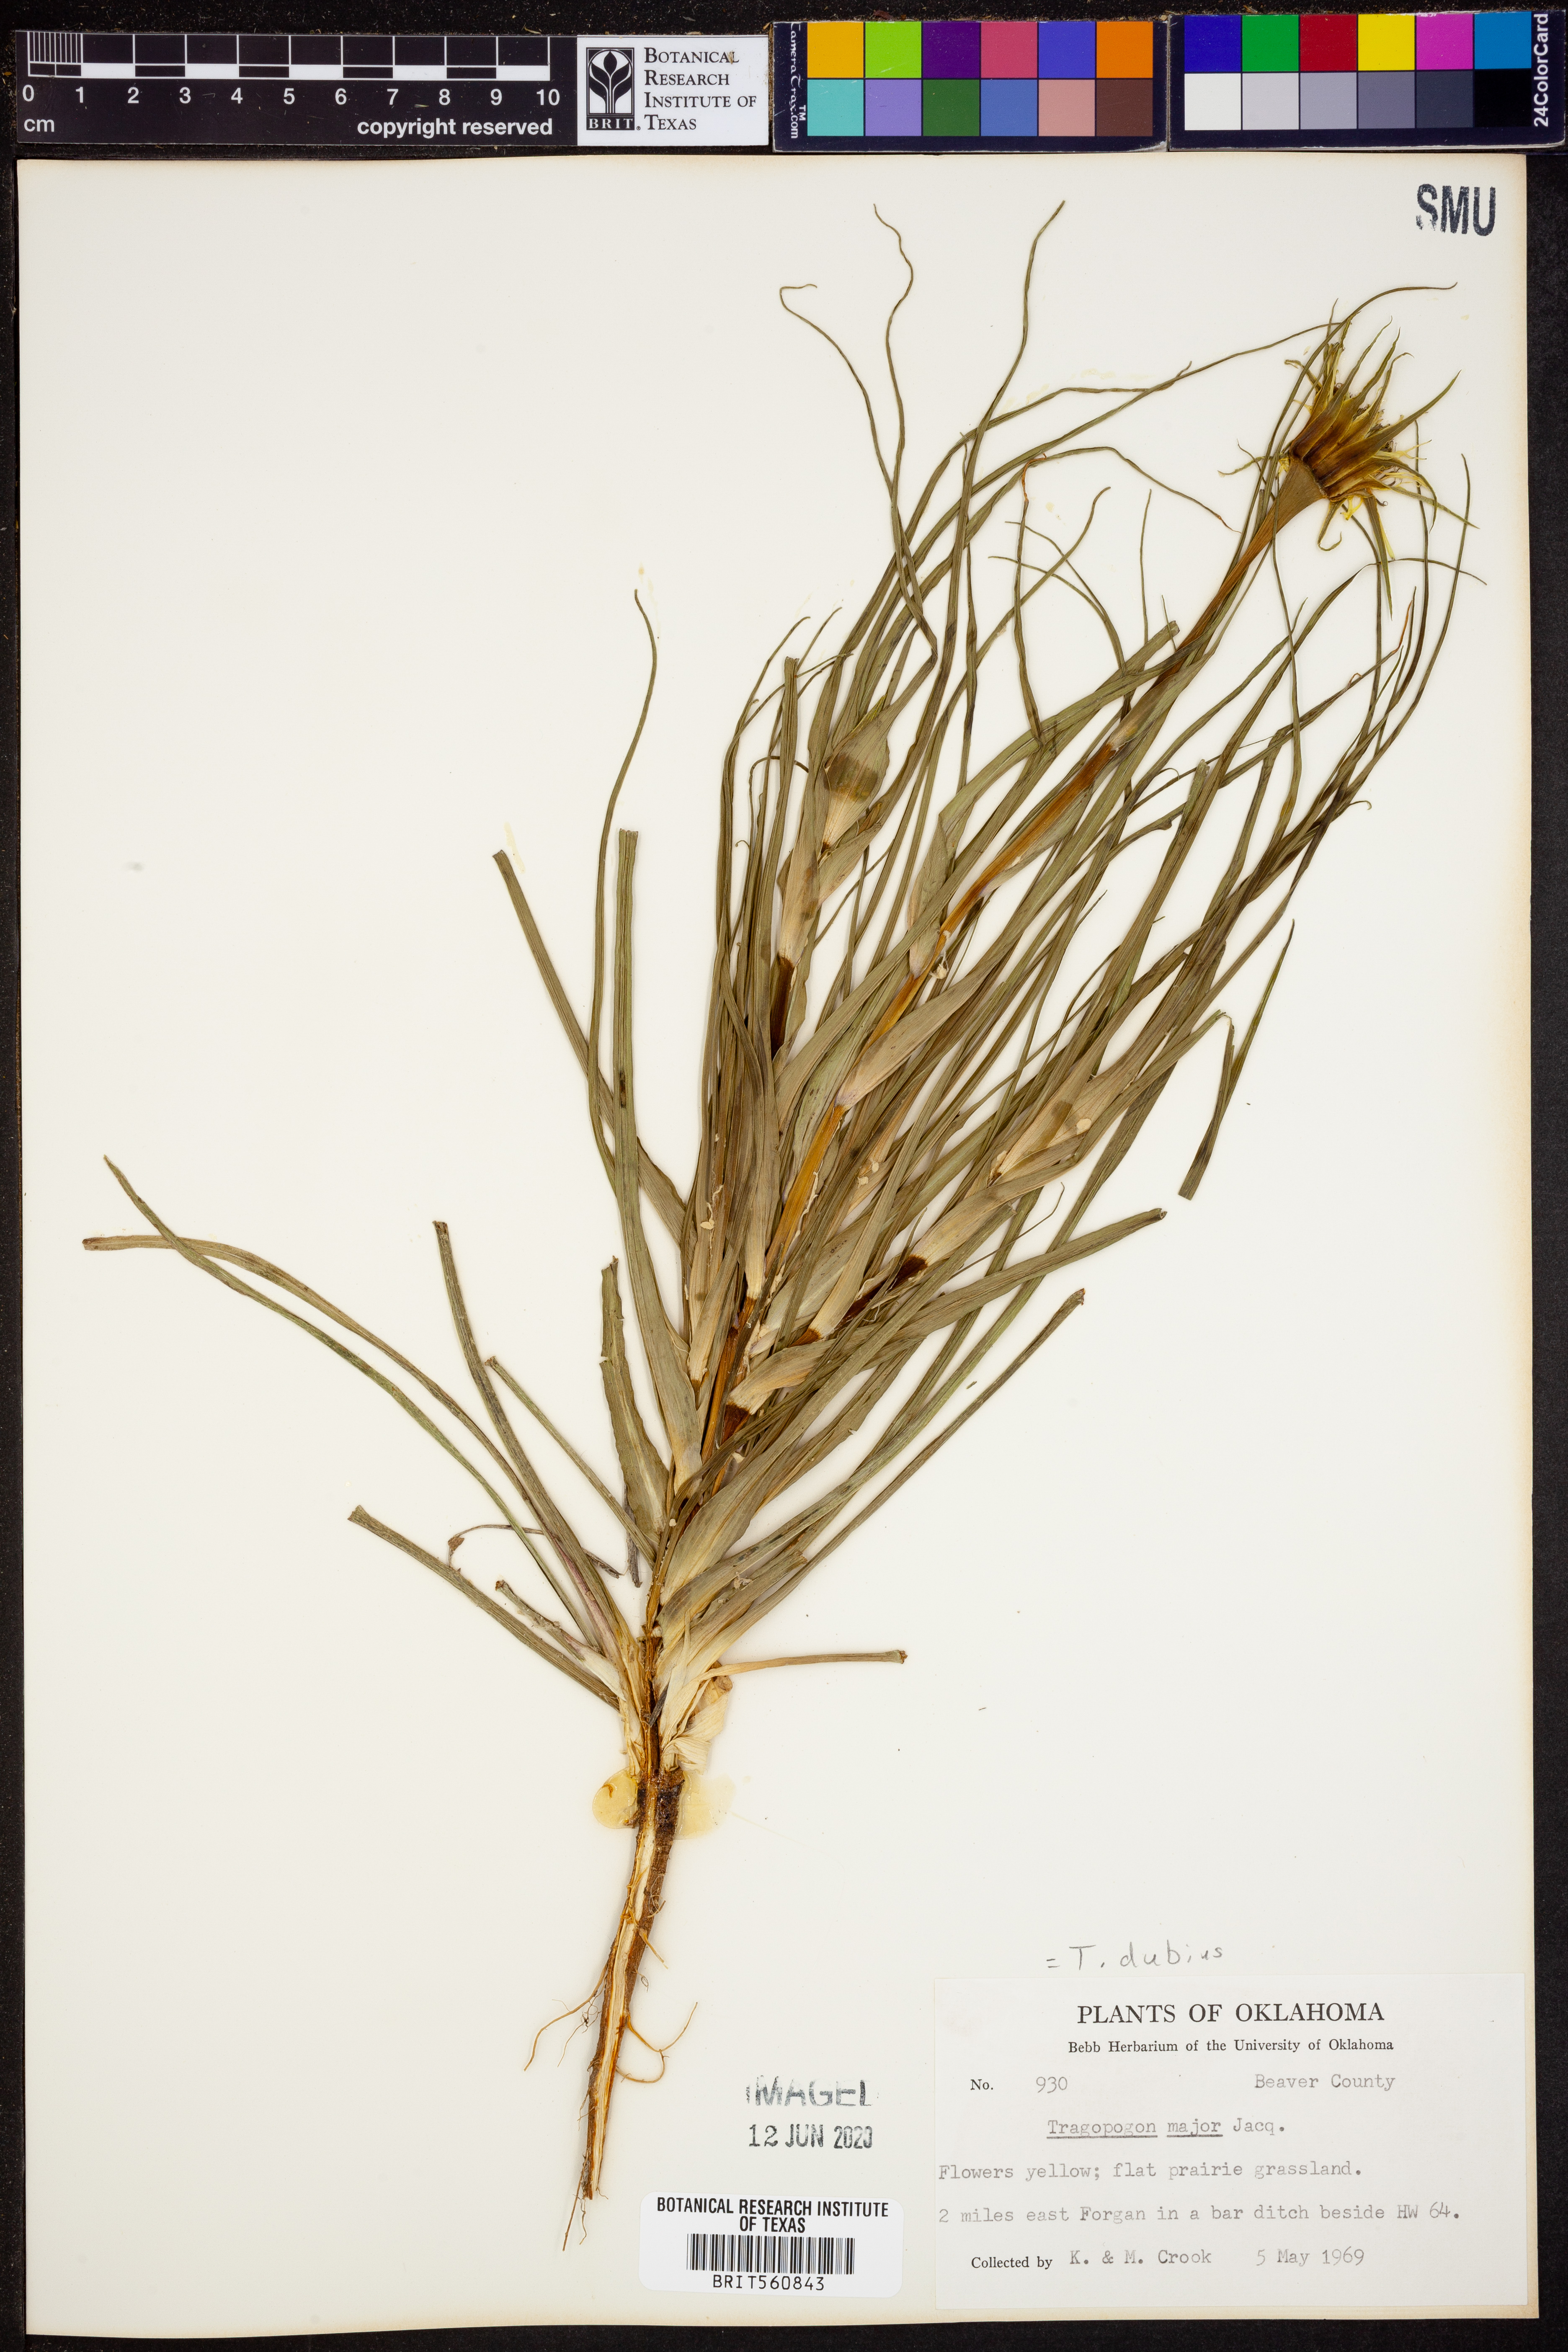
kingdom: Plantae
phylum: Tracheophyta
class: Magnoliopsida
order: Asterales
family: Asteraceae
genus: Tragopogon
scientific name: Tragopogon dubius
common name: Yellow salsify
